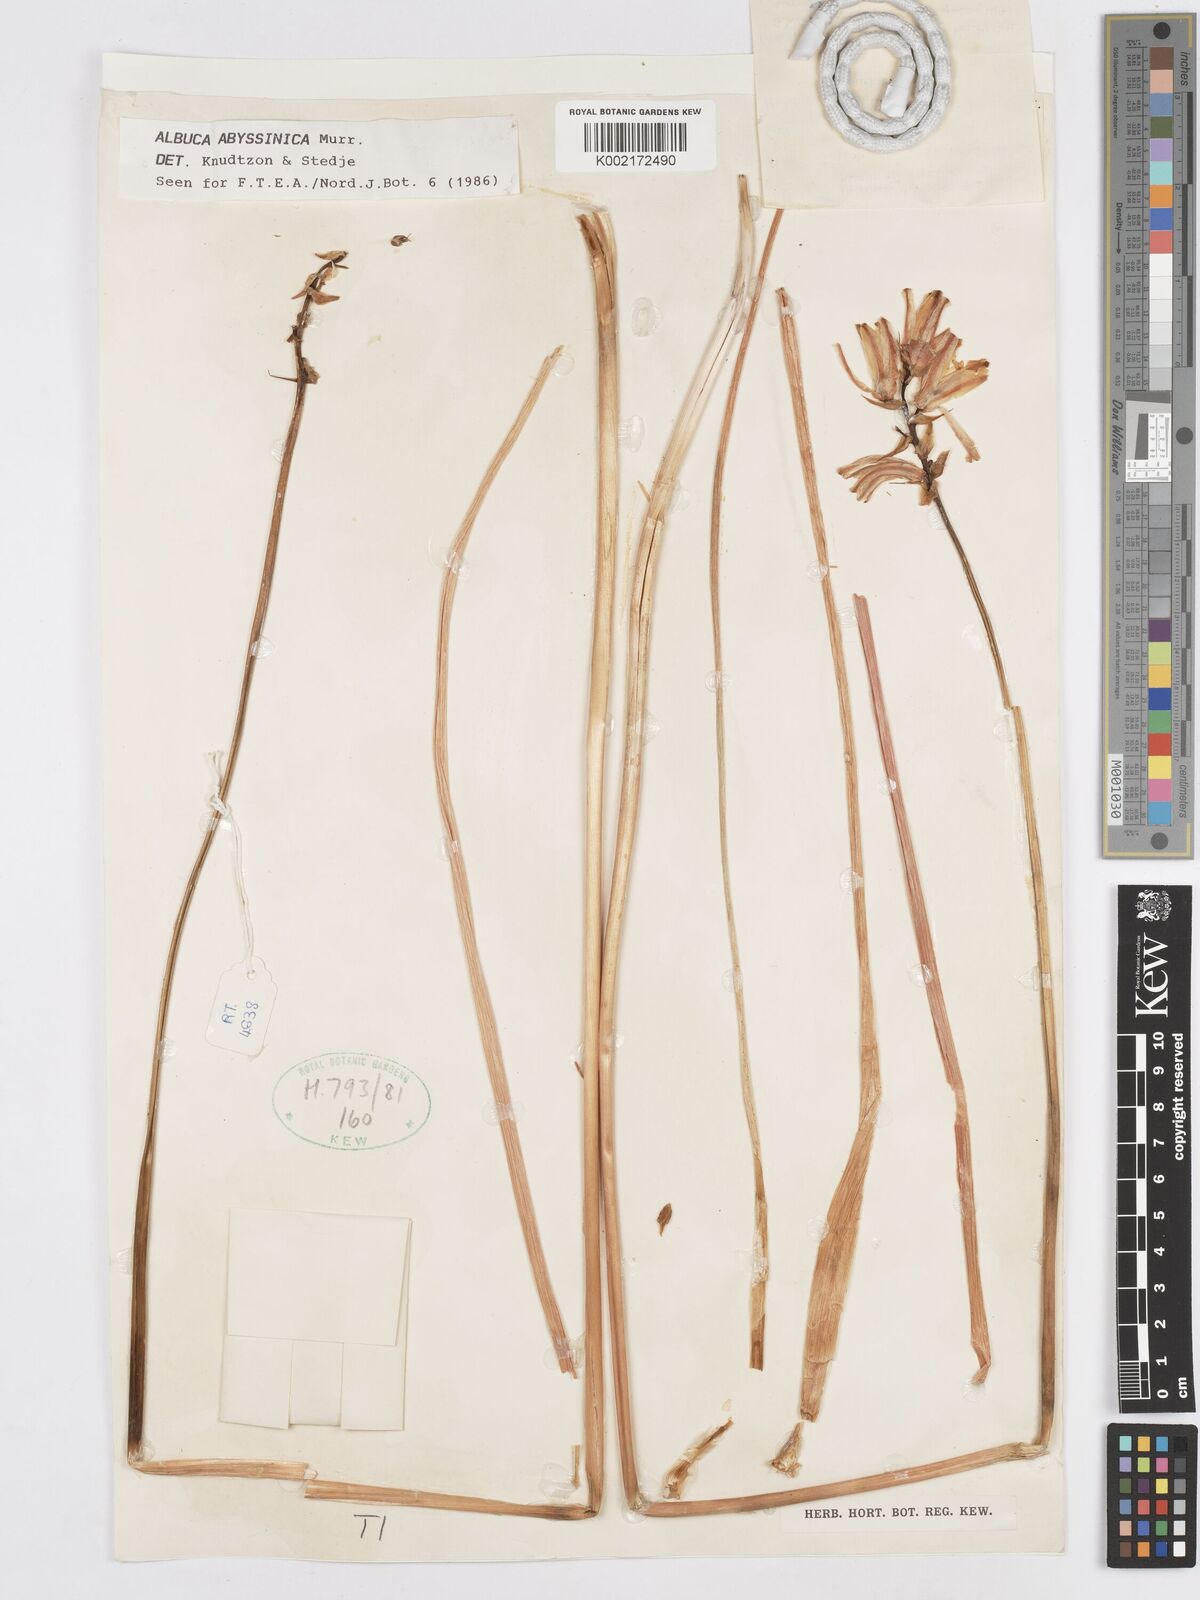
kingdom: Plantae
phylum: Tracheophyta
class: Liliopsida
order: Asparagales
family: Asparagaceae
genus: Albuca
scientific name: Albuca abyssinica
